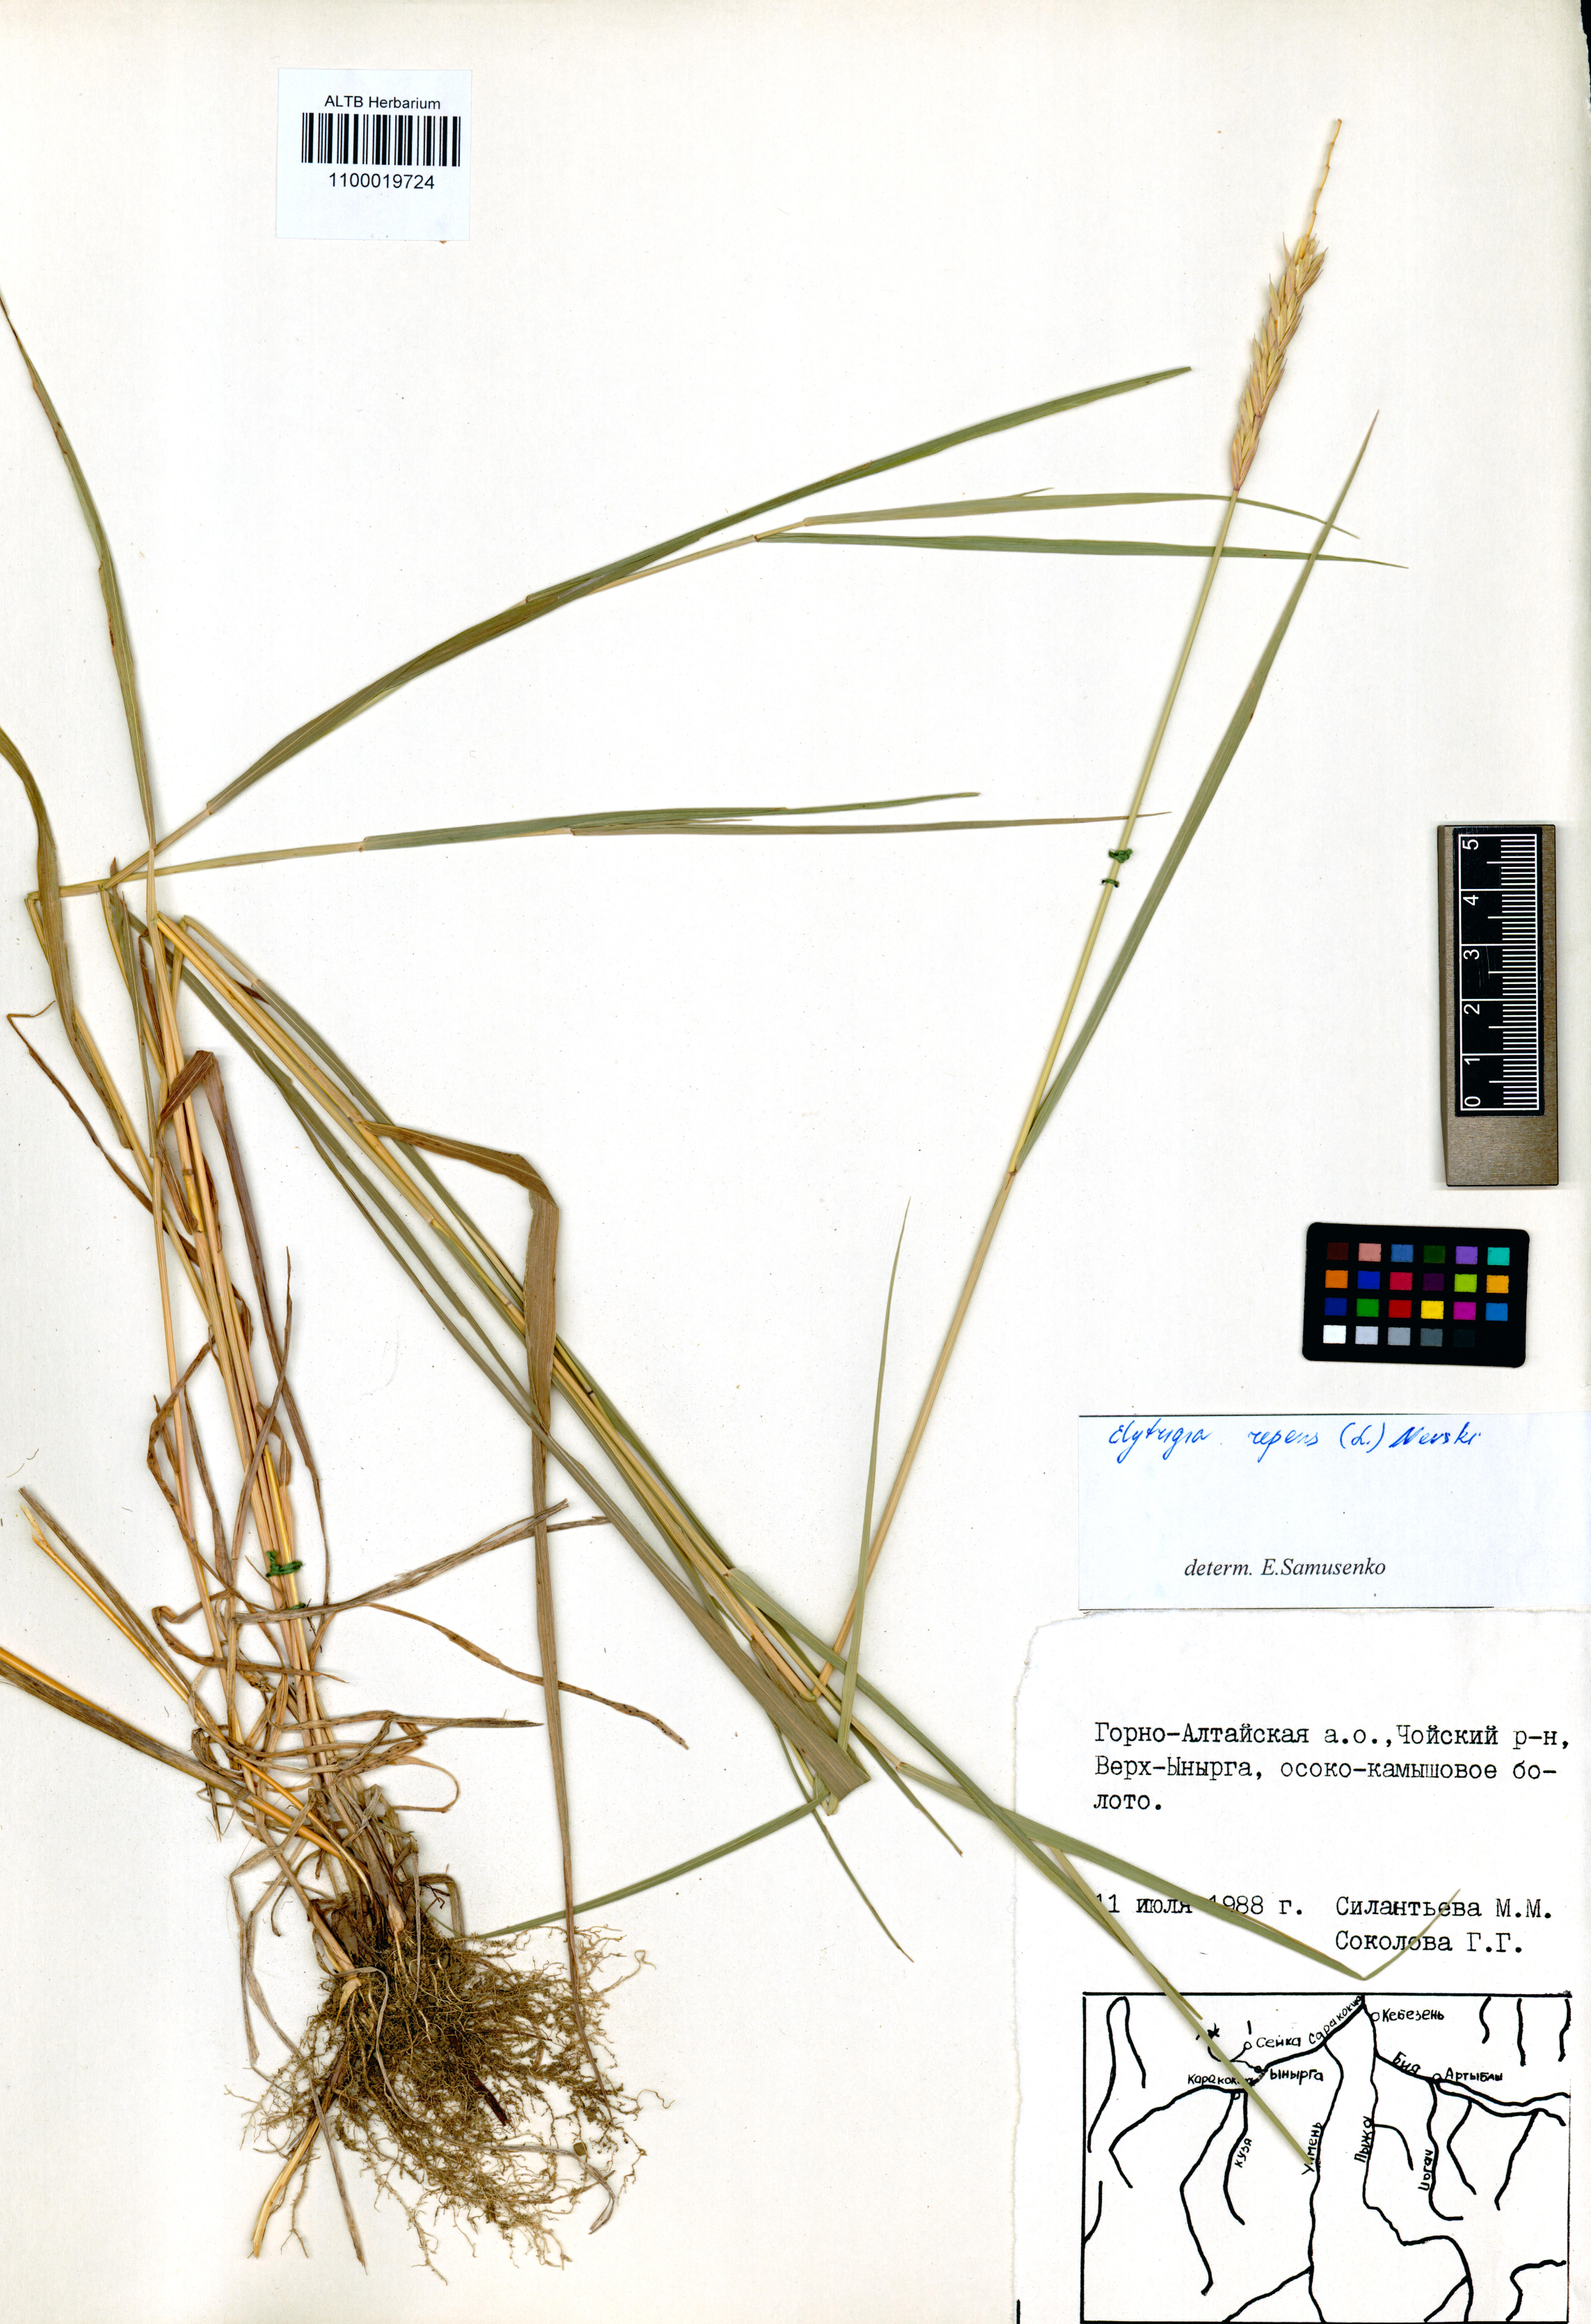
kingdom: Plantae
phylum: Tracheophyta
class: Liliopsida
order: Poales
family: Poaceae
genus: Elymus
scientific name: Elymus repens
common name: Quackgrass
